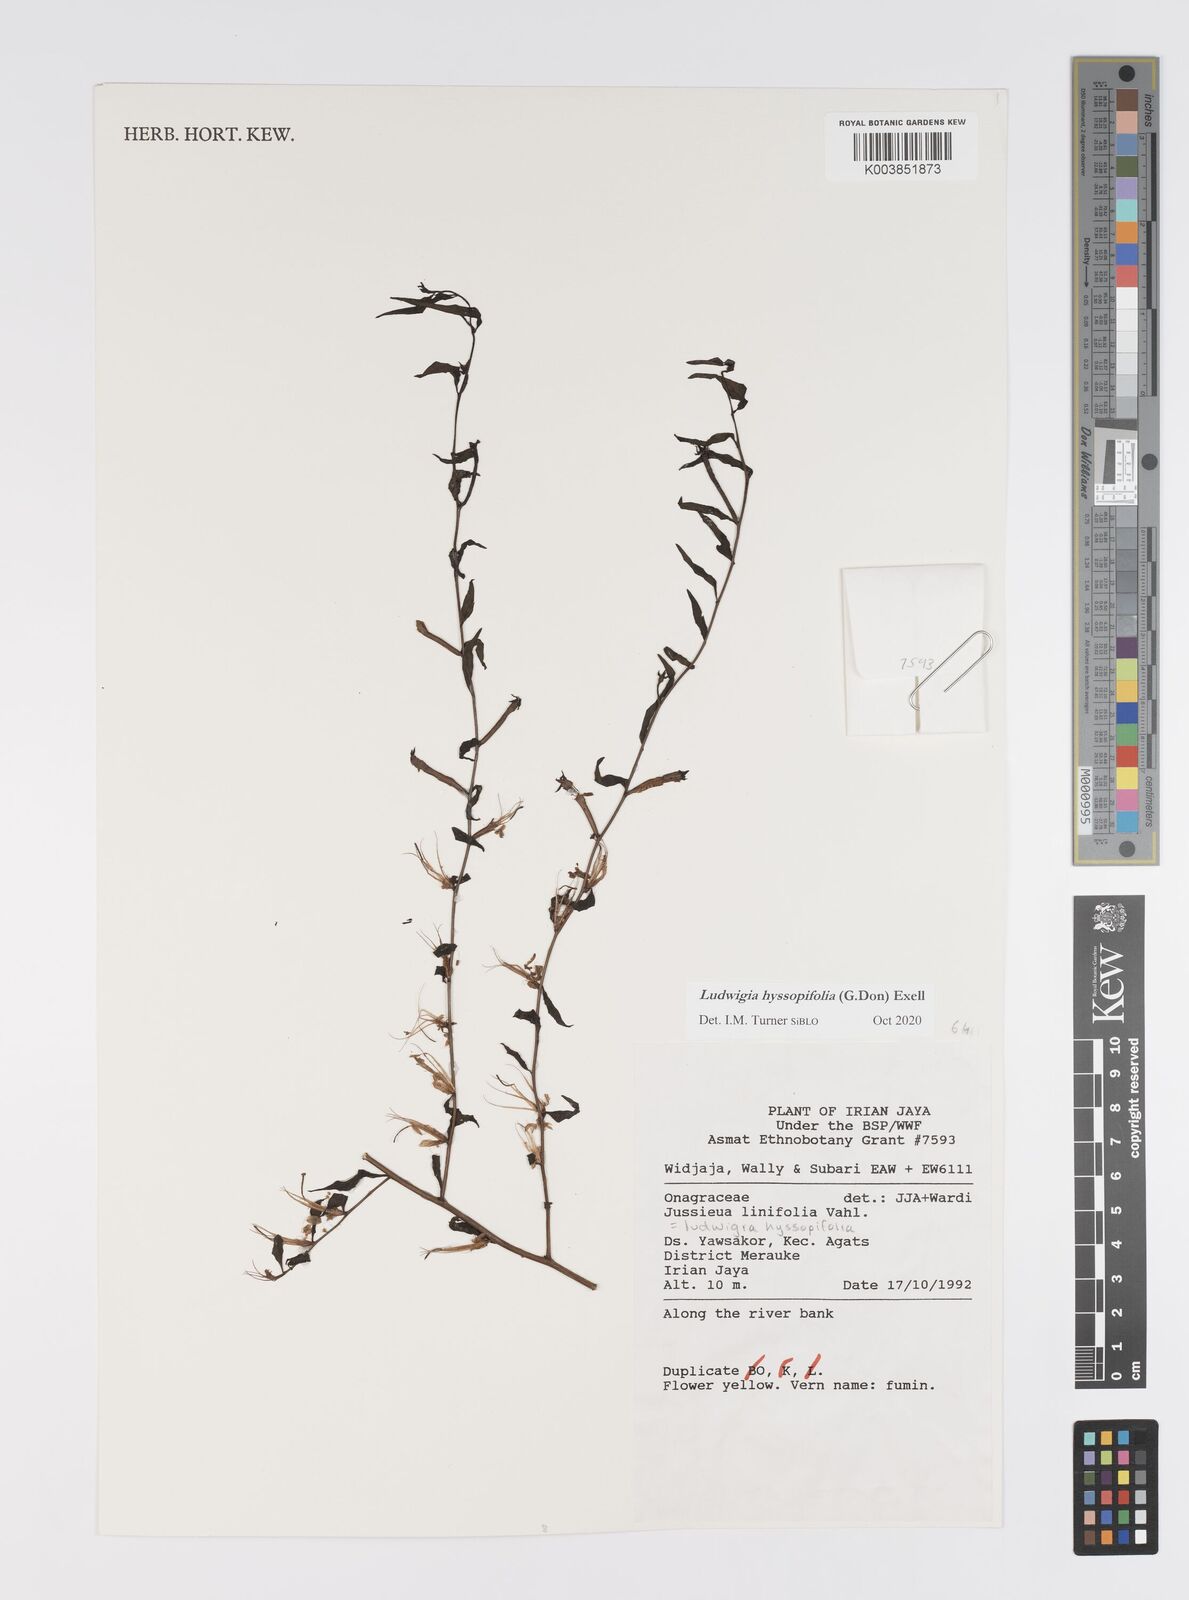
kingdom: Plantae
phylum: Tracheophyta
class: Magnoliopsida
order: Myrtales
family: Onagraceae
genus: Ludwigia
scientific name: Ludwigia hyssopifolia
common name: Linear leaf water primrose
